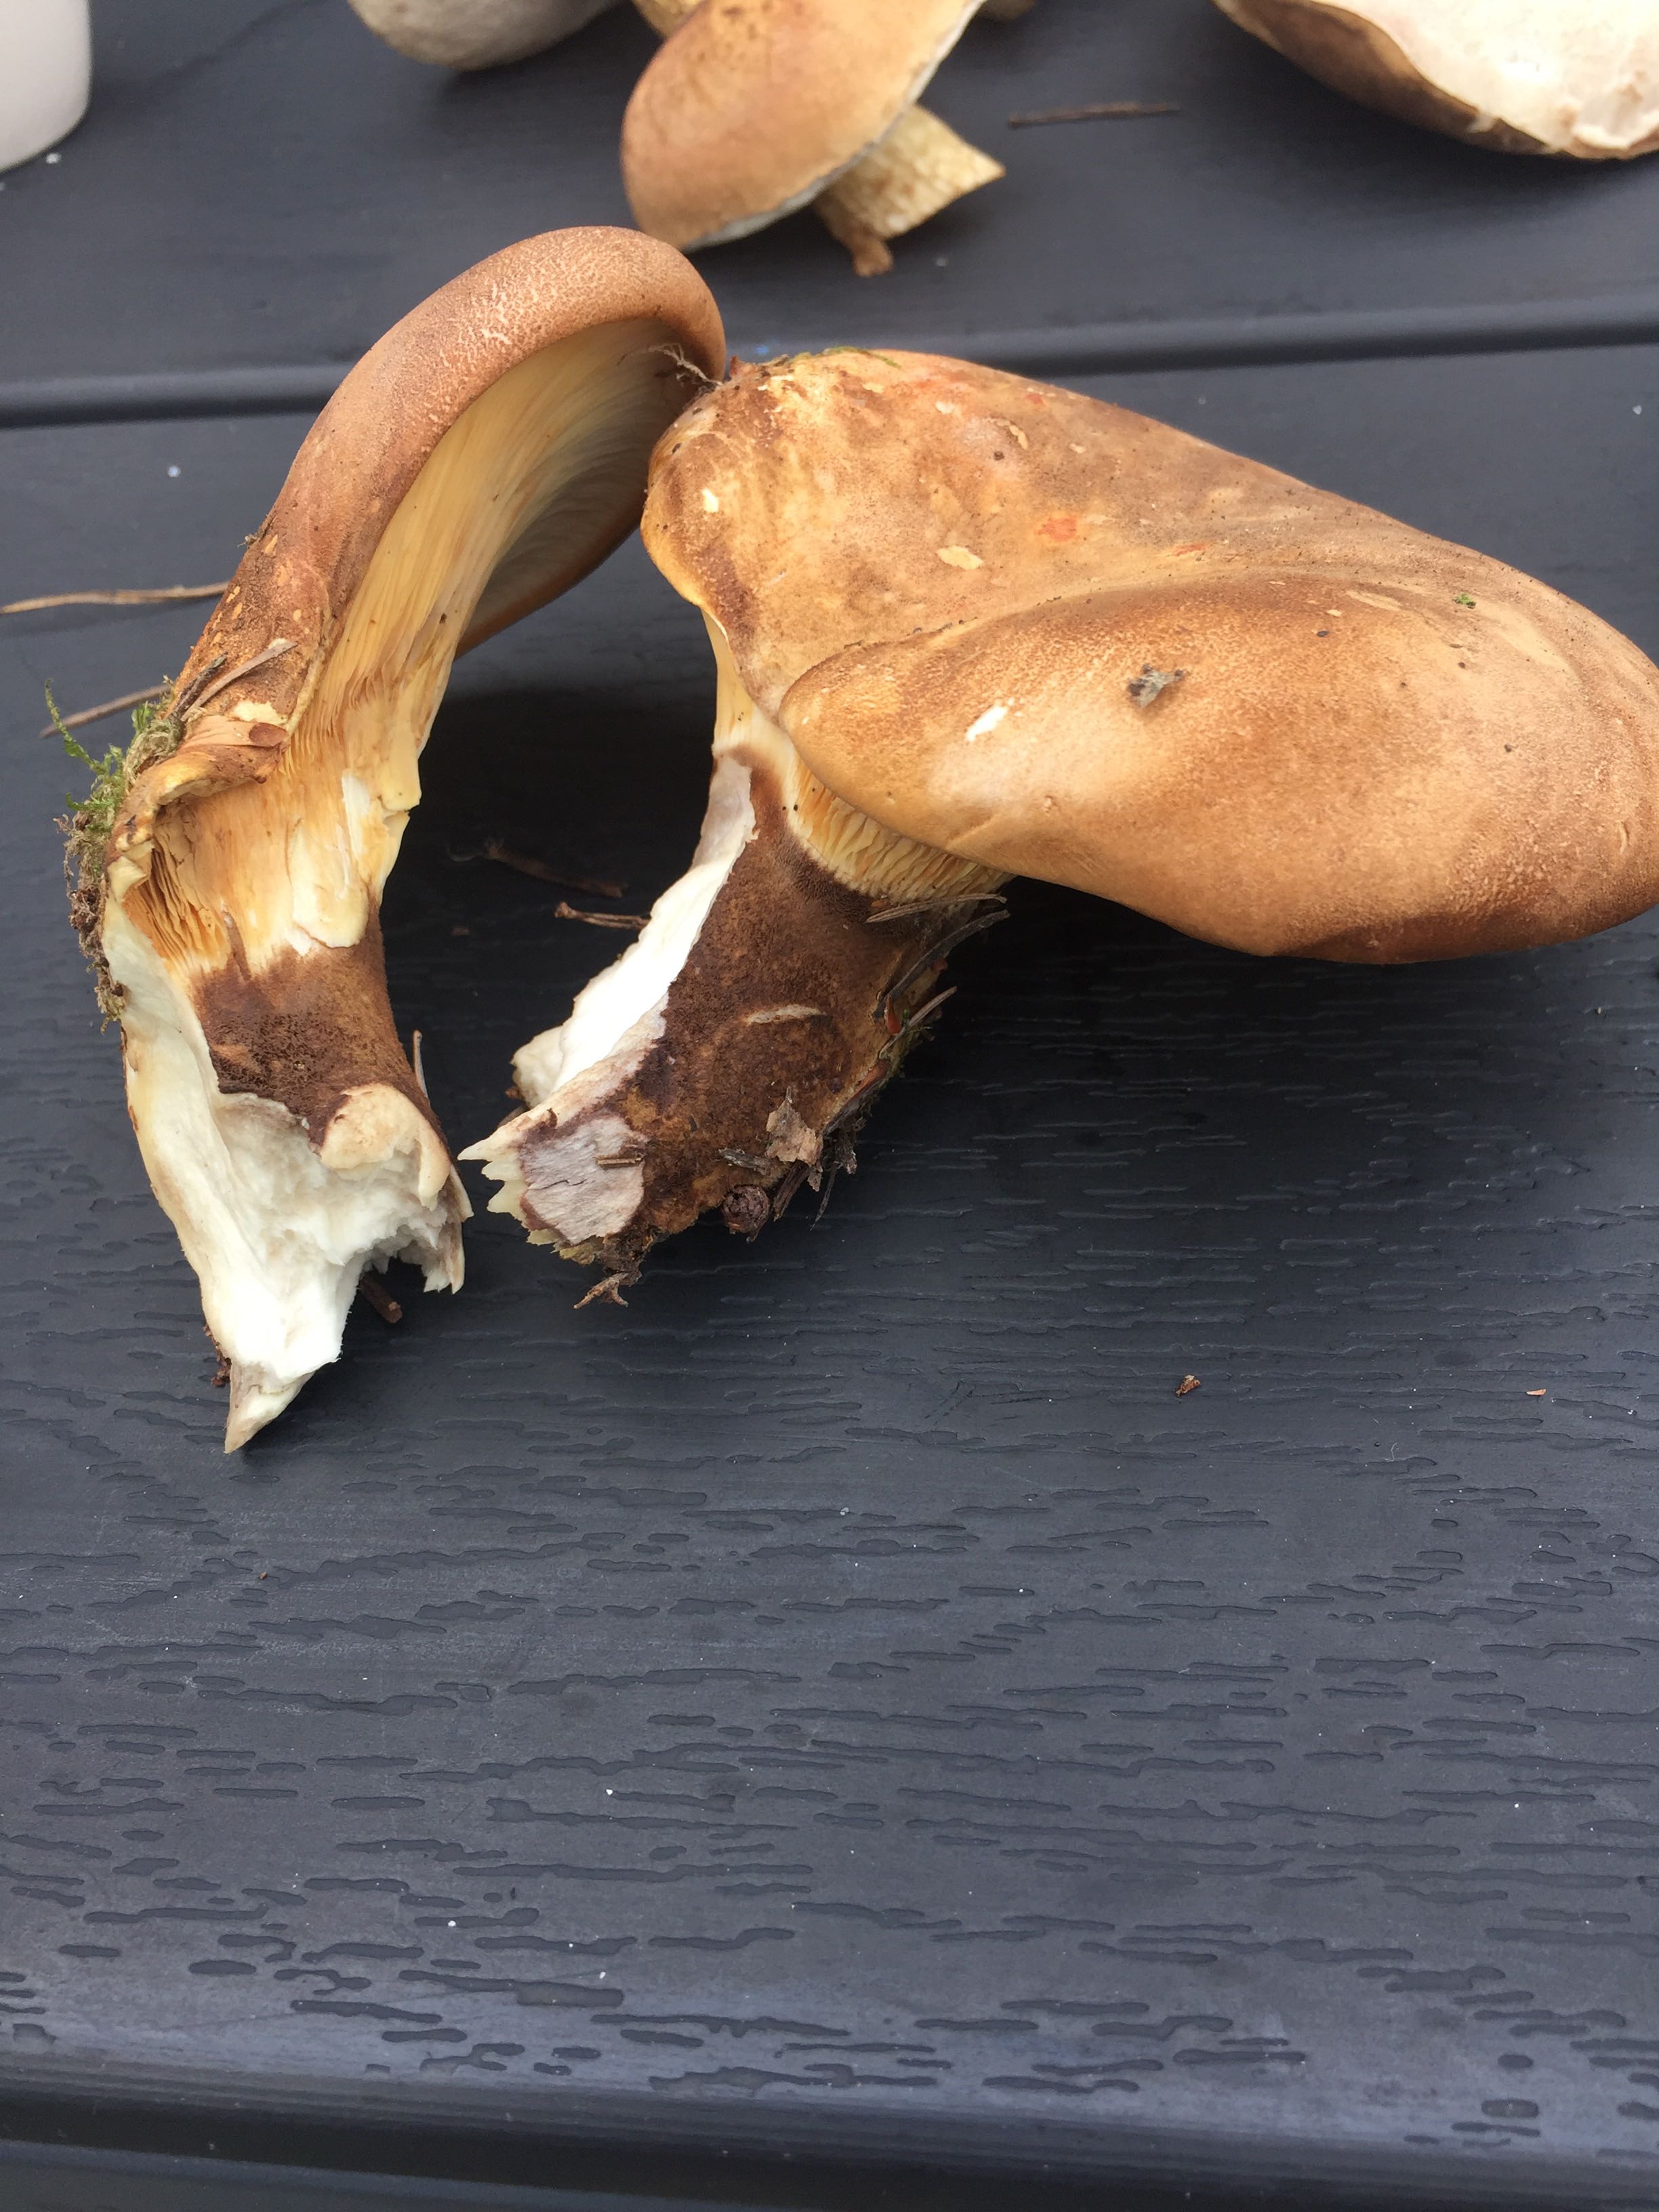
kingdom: Fungi
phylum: Basidiomycota
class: Agaricomycetes
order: Boletales
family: Tapinellaceae
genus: Tapinella
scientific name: Tapinella atrotomentosa
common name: sortfiltet viftesvamp
